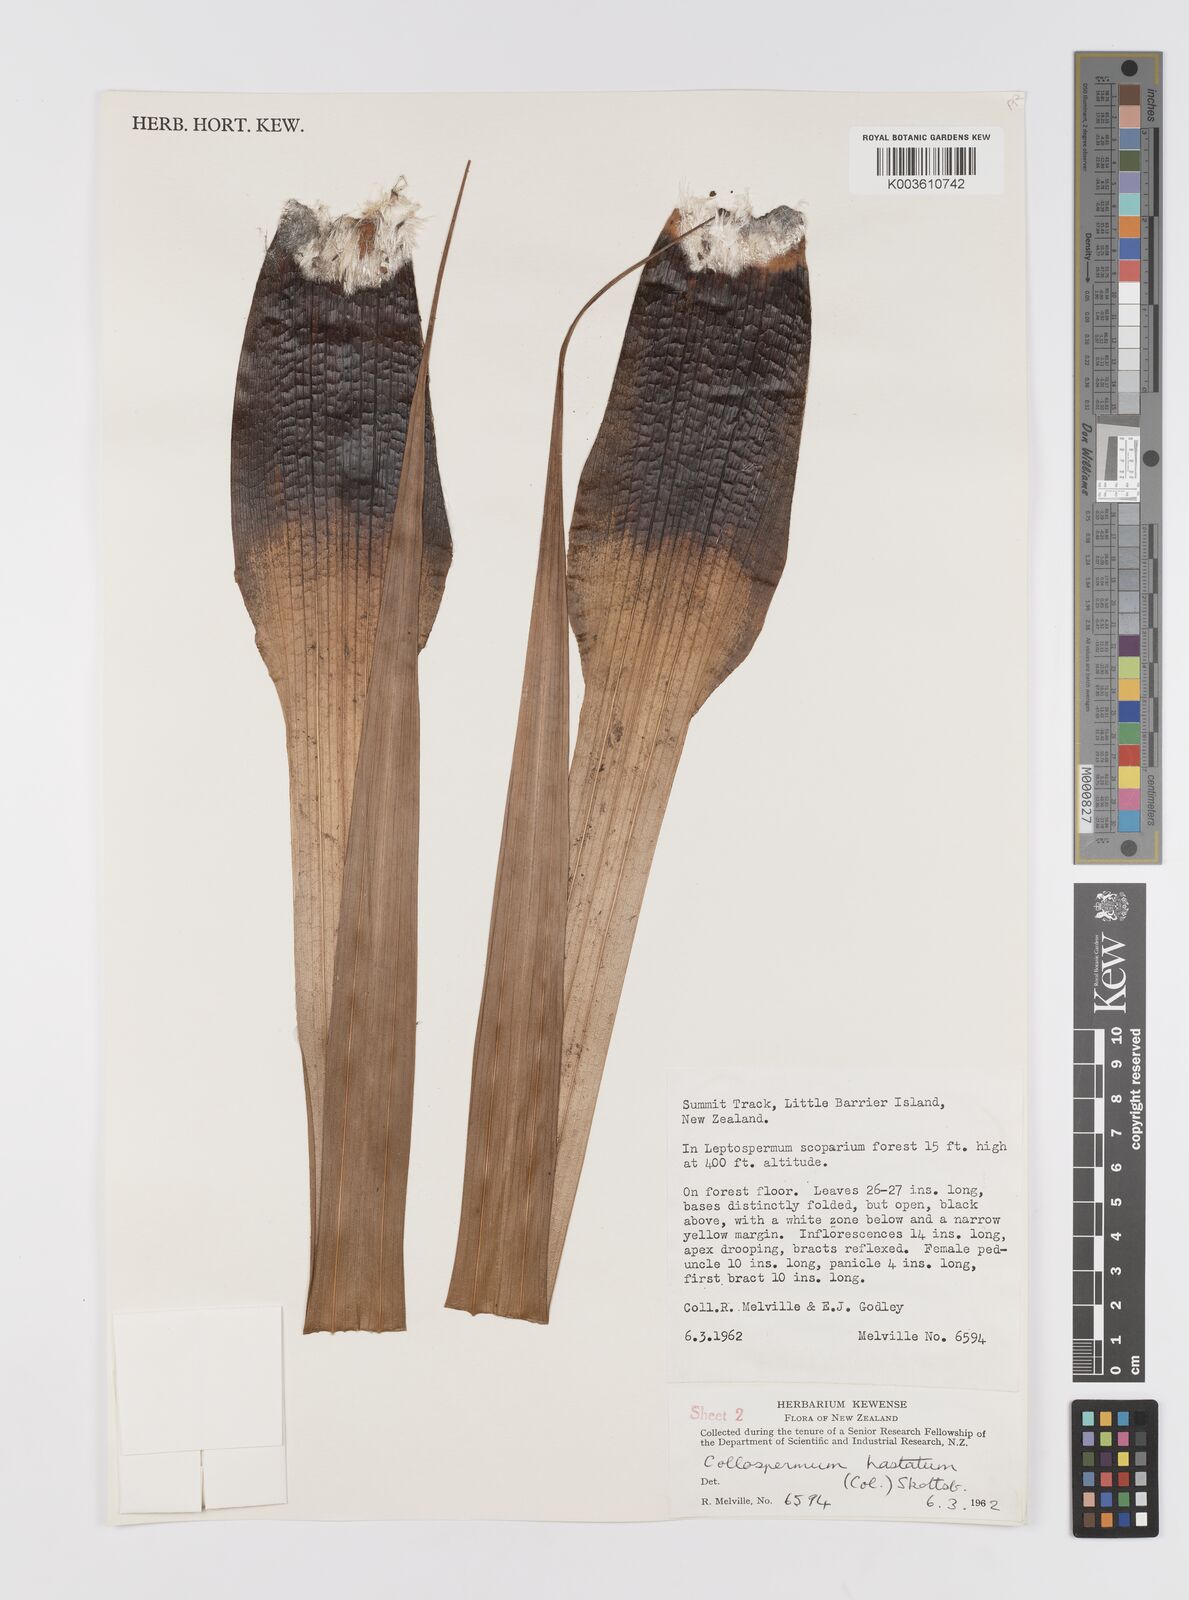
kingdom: Plantae
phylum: Tracheophyta
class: Liliopsida
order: Asparagales
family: Asteliaceae
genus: Astelia
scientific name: Astelia hastata
